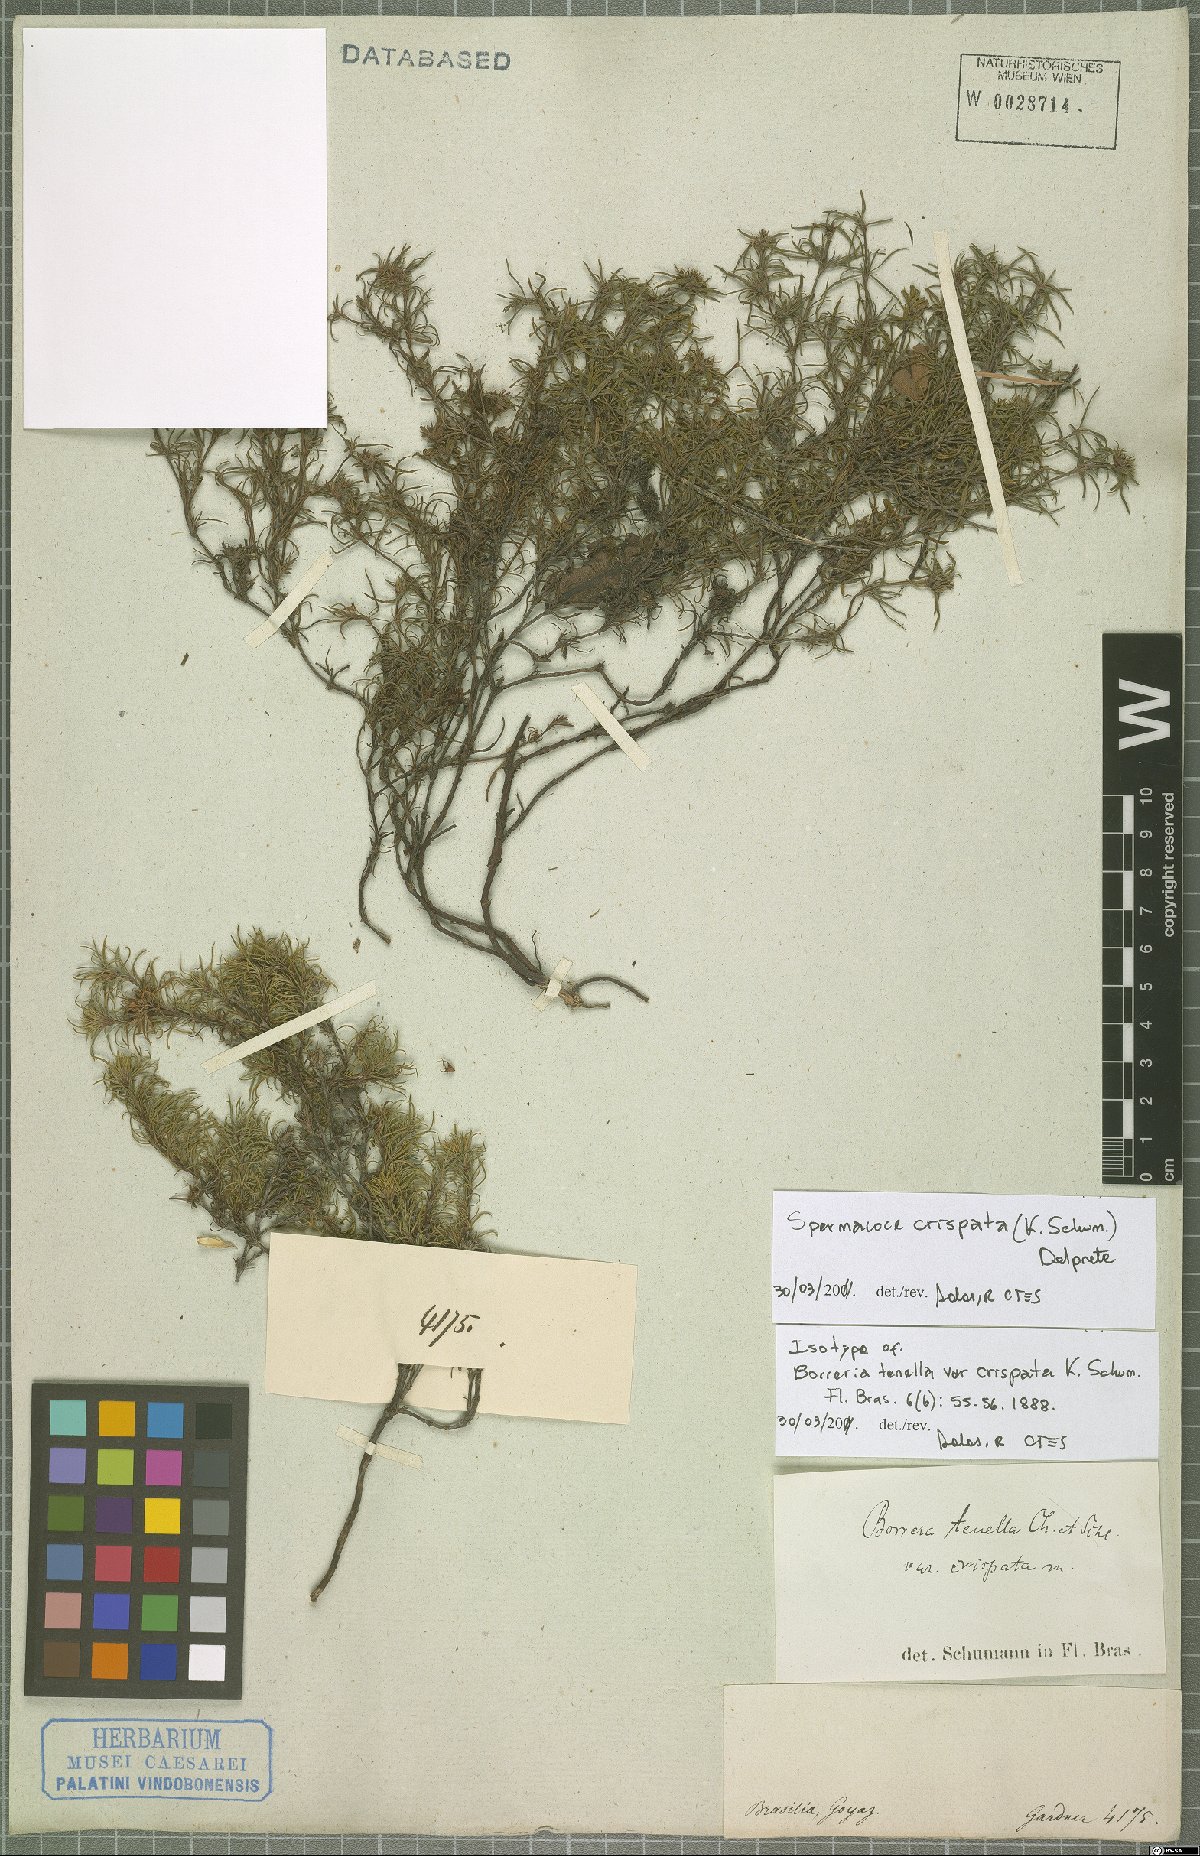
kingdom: Plantae
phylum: Tracheophyta
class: Magnoliopsida
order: Gentianales
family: Rubiaceae
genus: Spermacoce
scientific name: Spermacoce crispata
